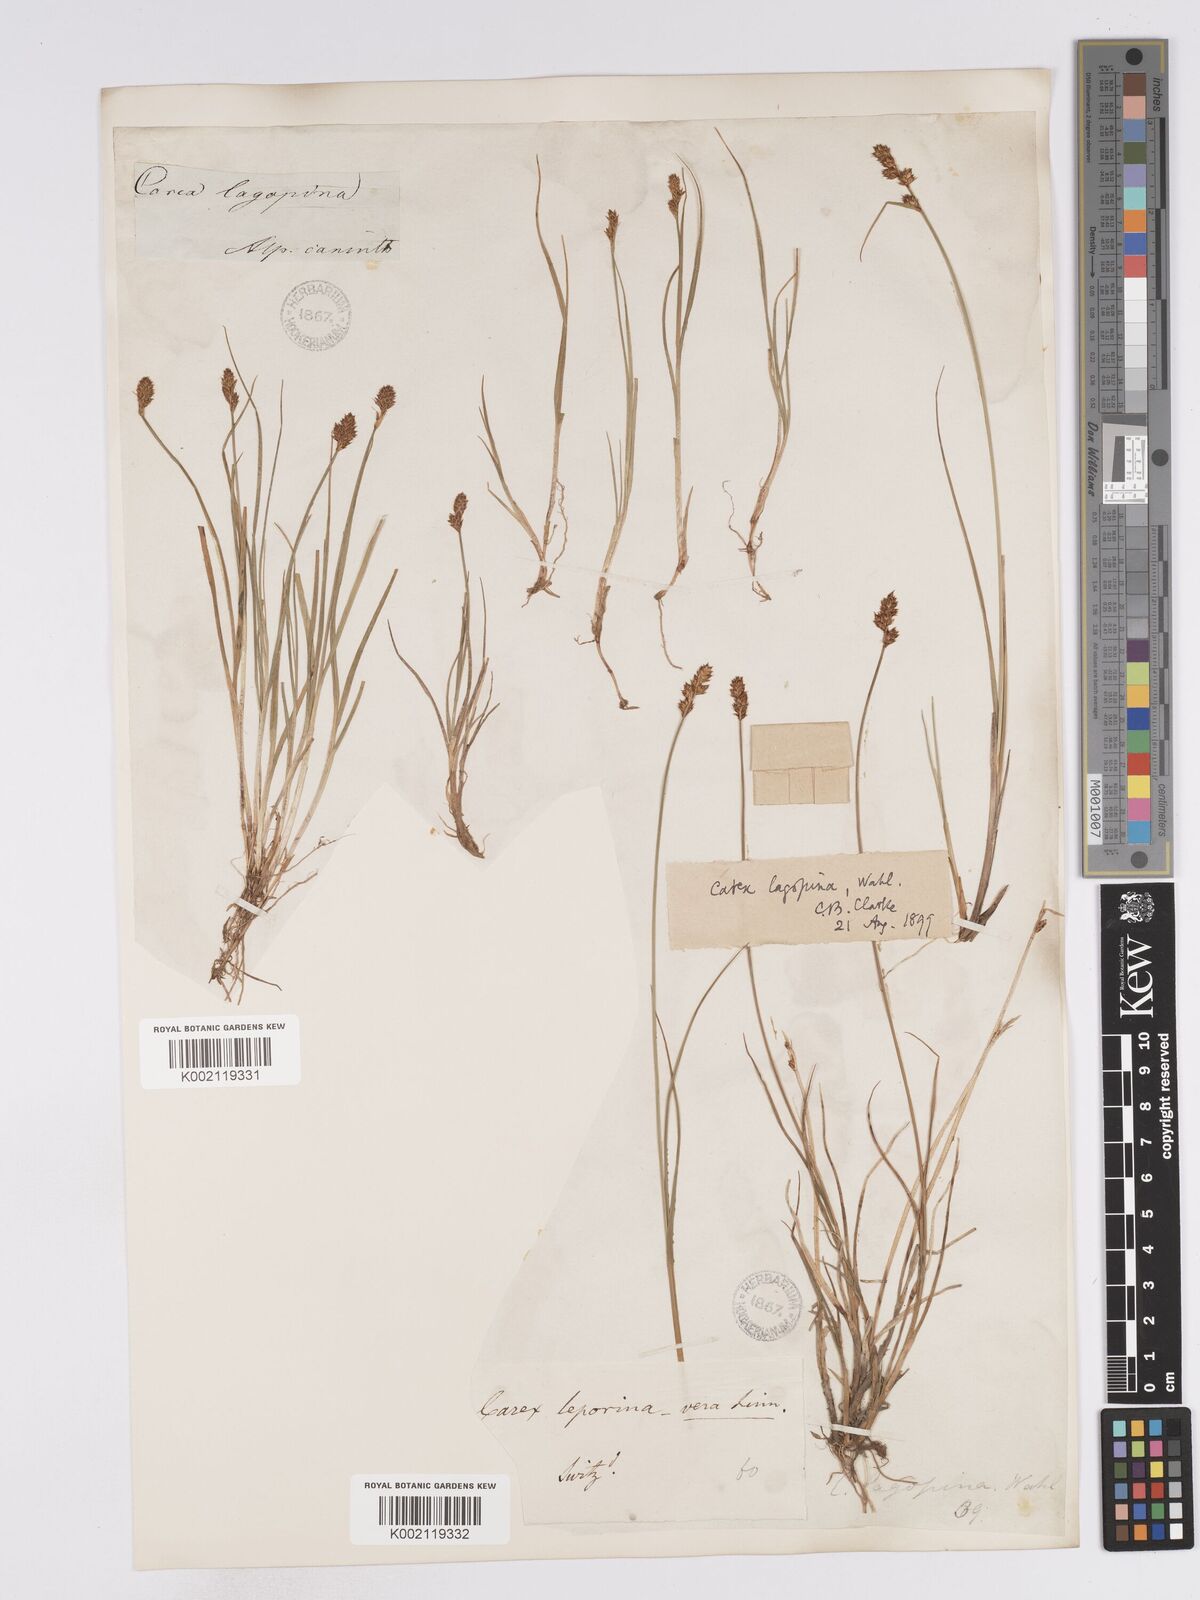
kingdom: Plantae
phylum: Tracheophyta
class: Liliopsida
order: Poales
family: Cyperaceae
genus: Carex
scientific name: Carex lachenalii
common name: Hare's-foot sedge
